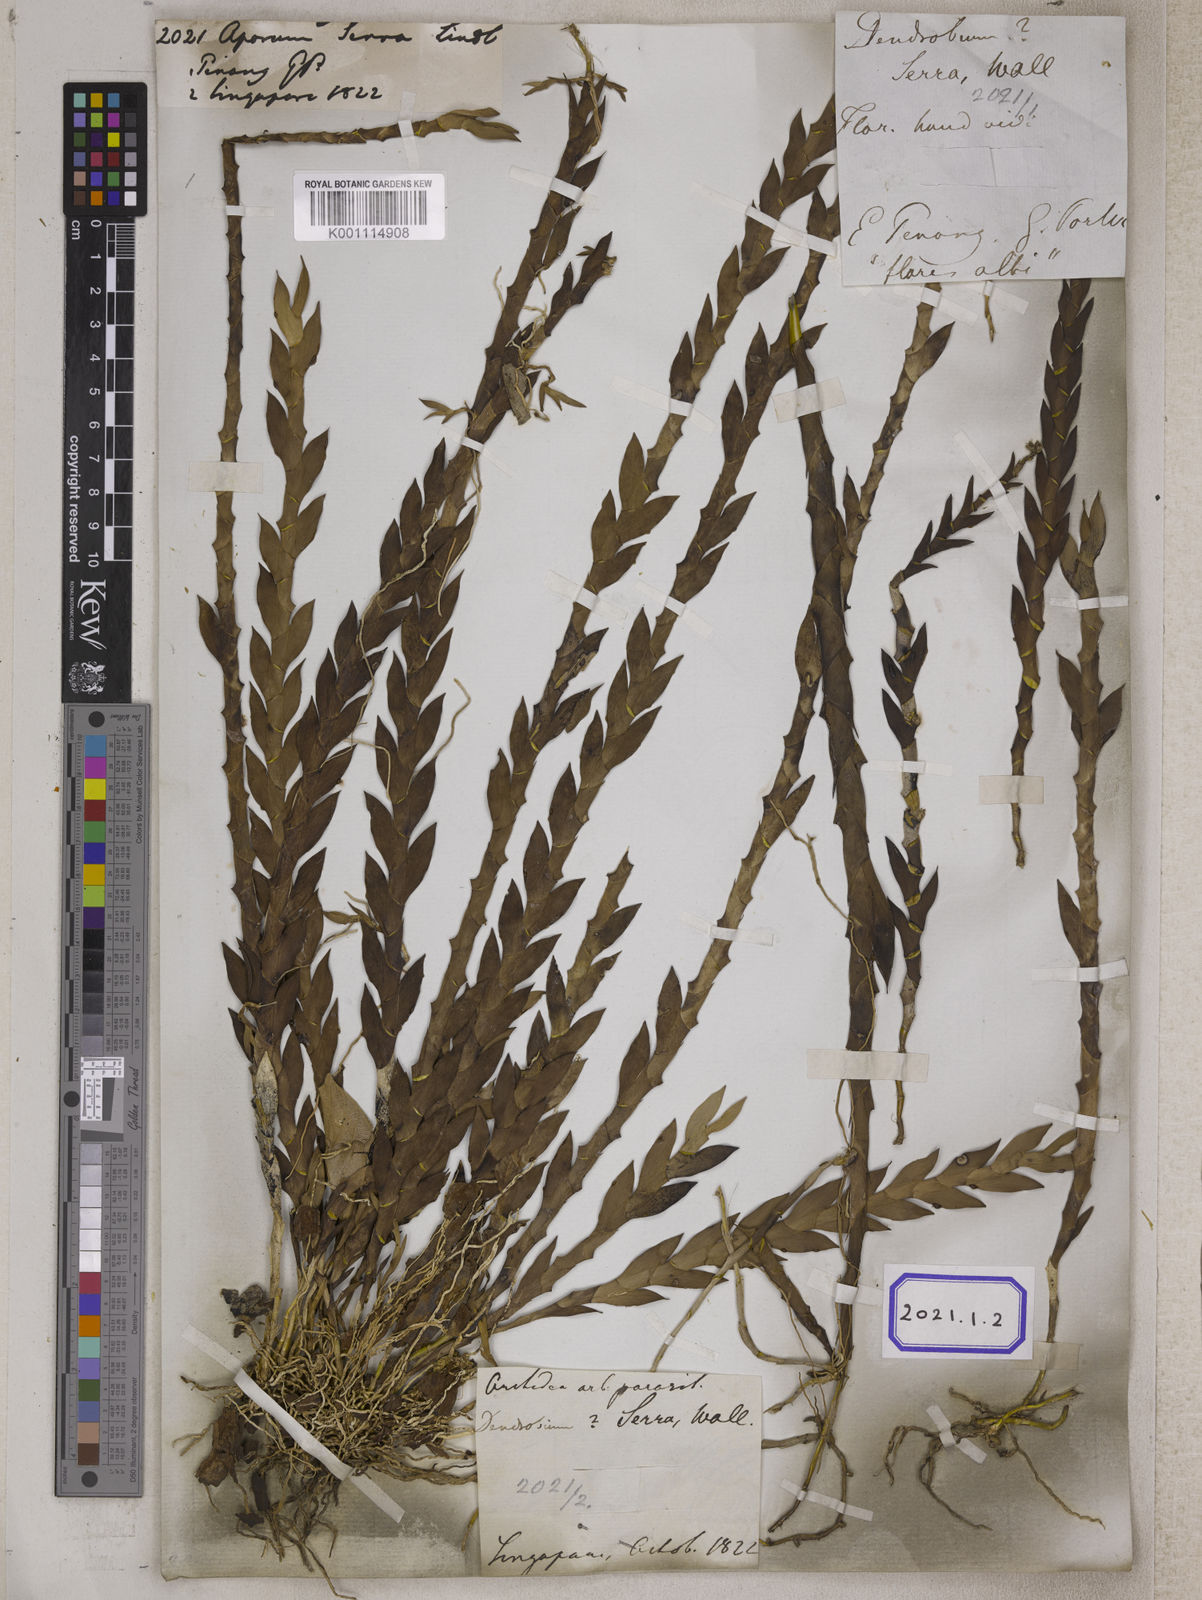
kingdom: Plantae
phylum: Tracheophyta
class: Liliopsida
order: Asparagales
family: Orchidaceae
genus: Dendrobium
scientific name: Dendrobium aloifolium
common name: Aloe-like dendrobium
